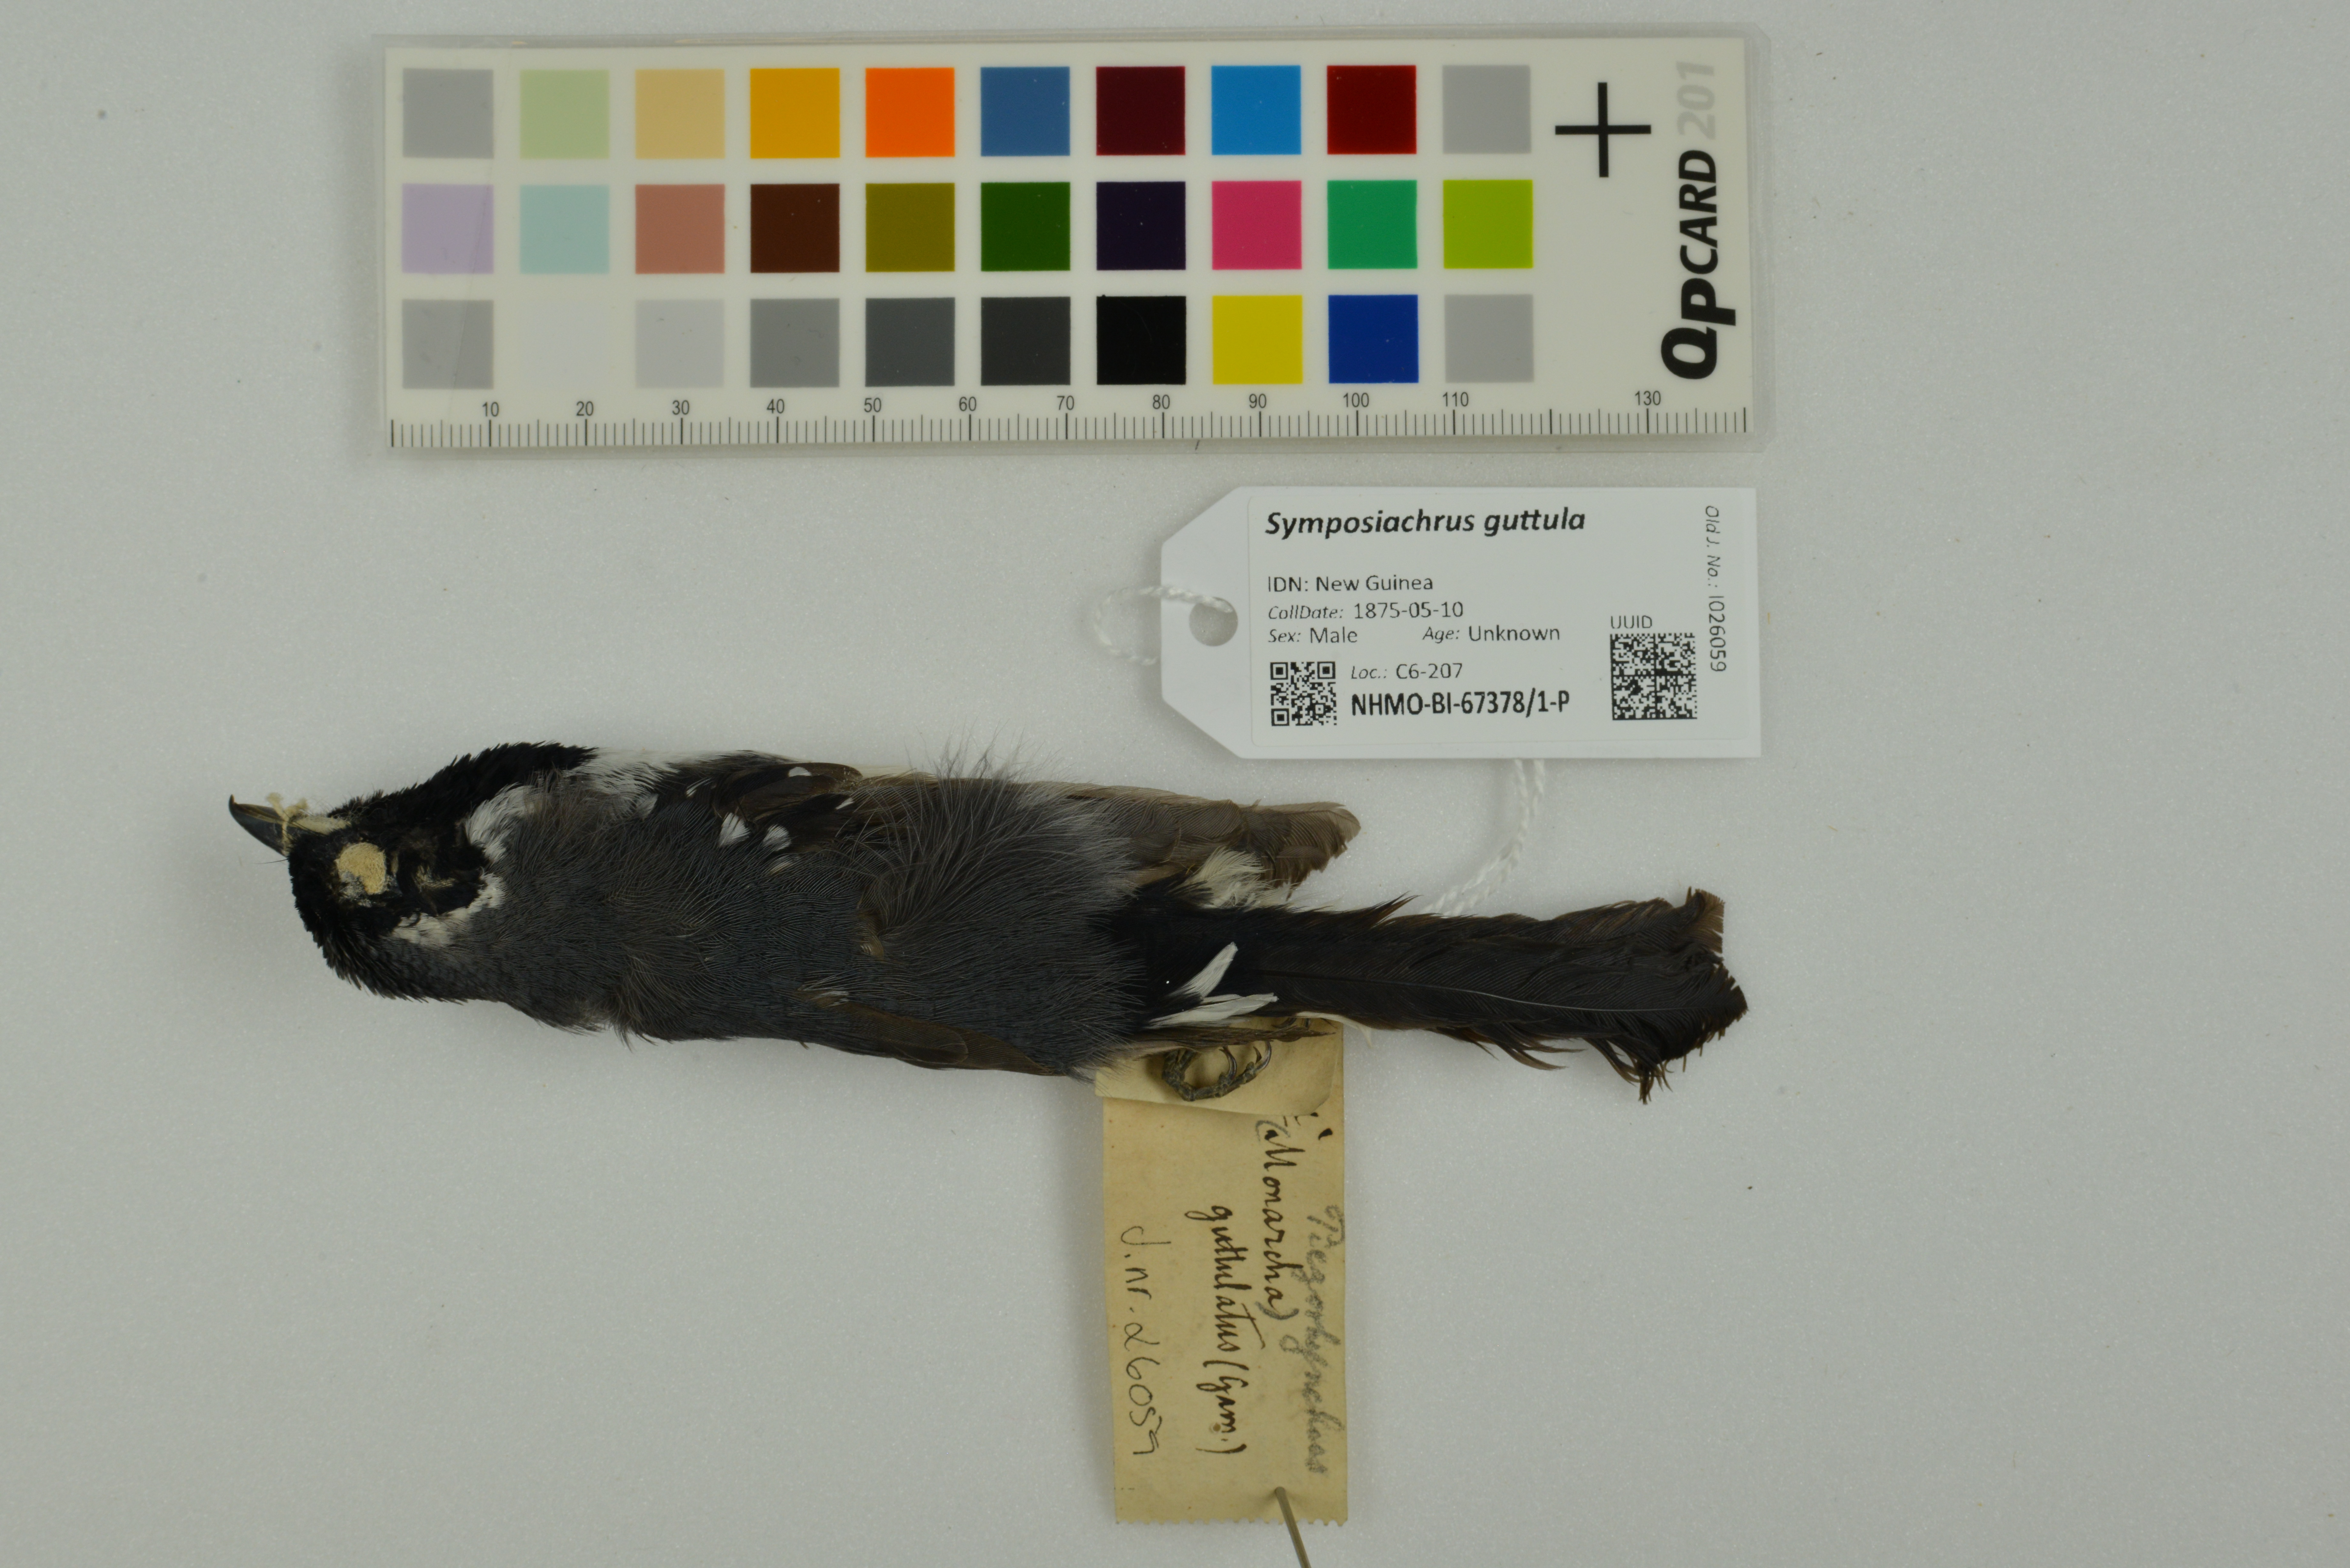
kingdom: Animalia
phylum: Chordata
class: Aves
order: Passeriformes
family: Monarchidae
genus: Symposiachrus
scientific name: Symposiachrus guttula
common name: Spot-winged monarch
